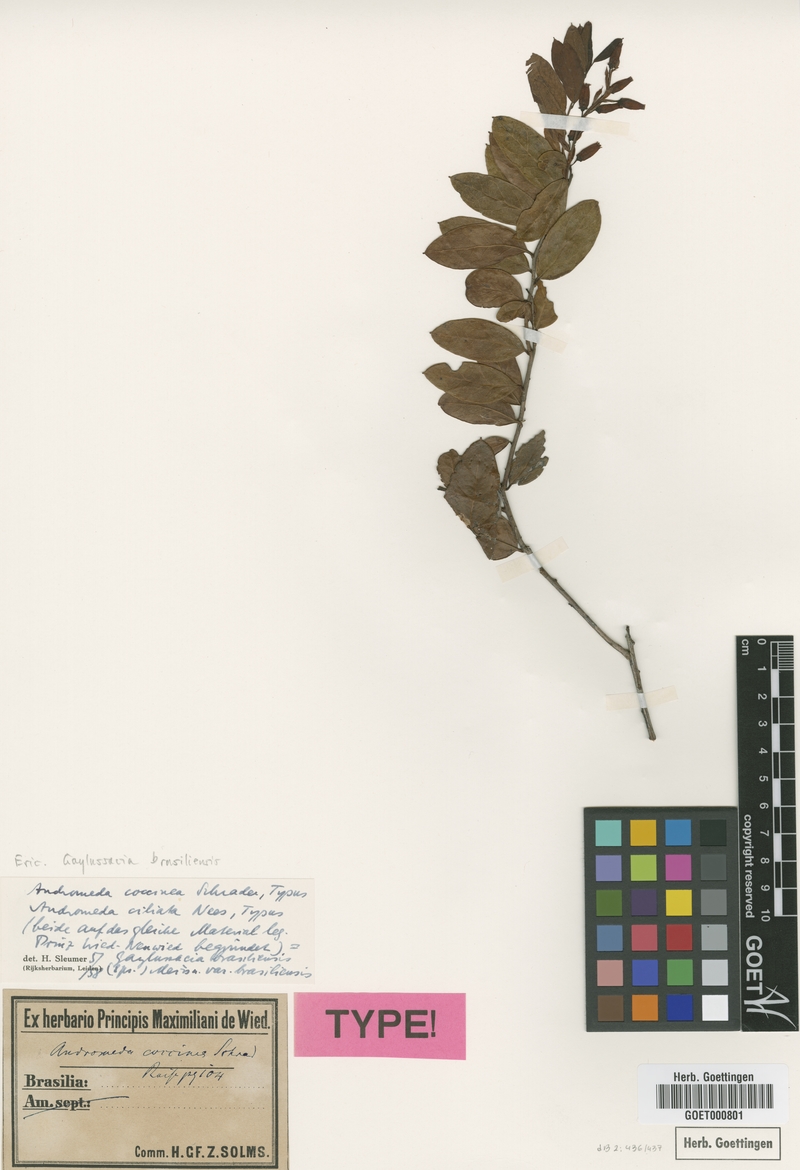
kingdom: Plantae
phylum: Tracheophyta
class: Magnoliopsida
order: Ericales
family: Ericaceae
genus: Gaylussacia
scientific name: Gaylussacia brasiliensis
